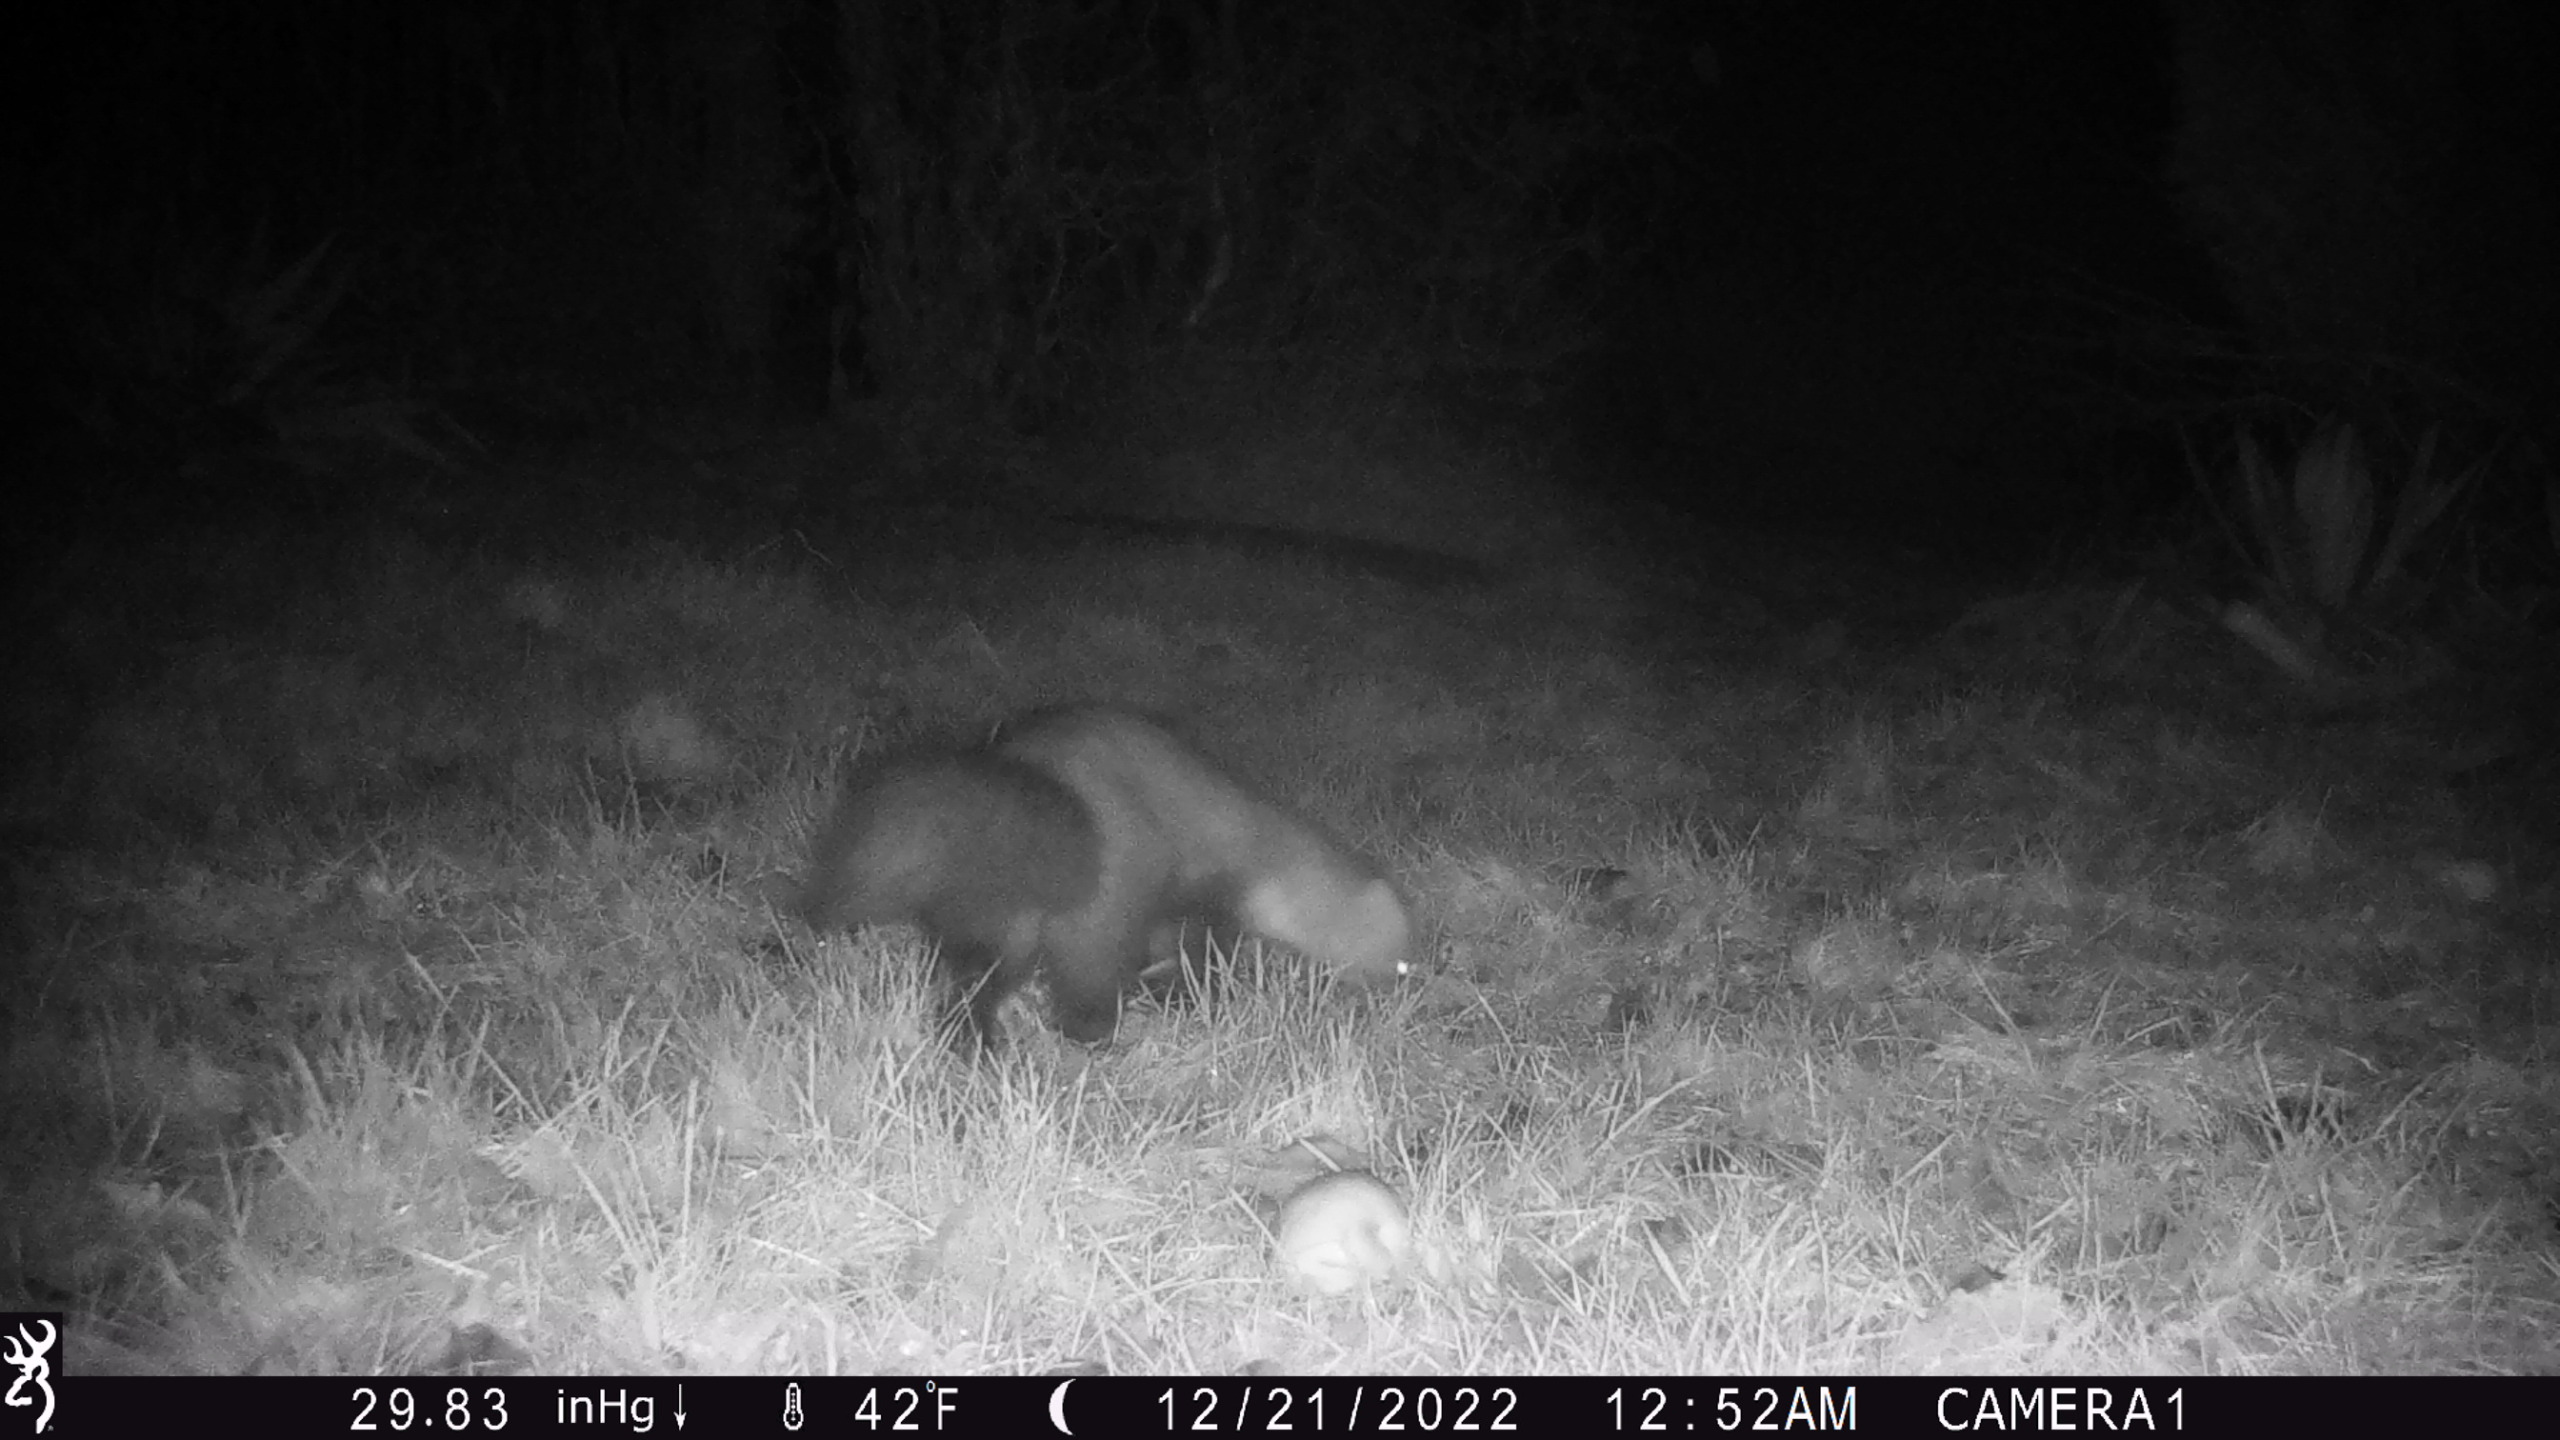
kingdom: Animalia
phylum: Chordata
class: Mammalia
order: Carnivora
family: Mustelidae
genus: Martes
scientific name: Martes foina
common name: Husmår
